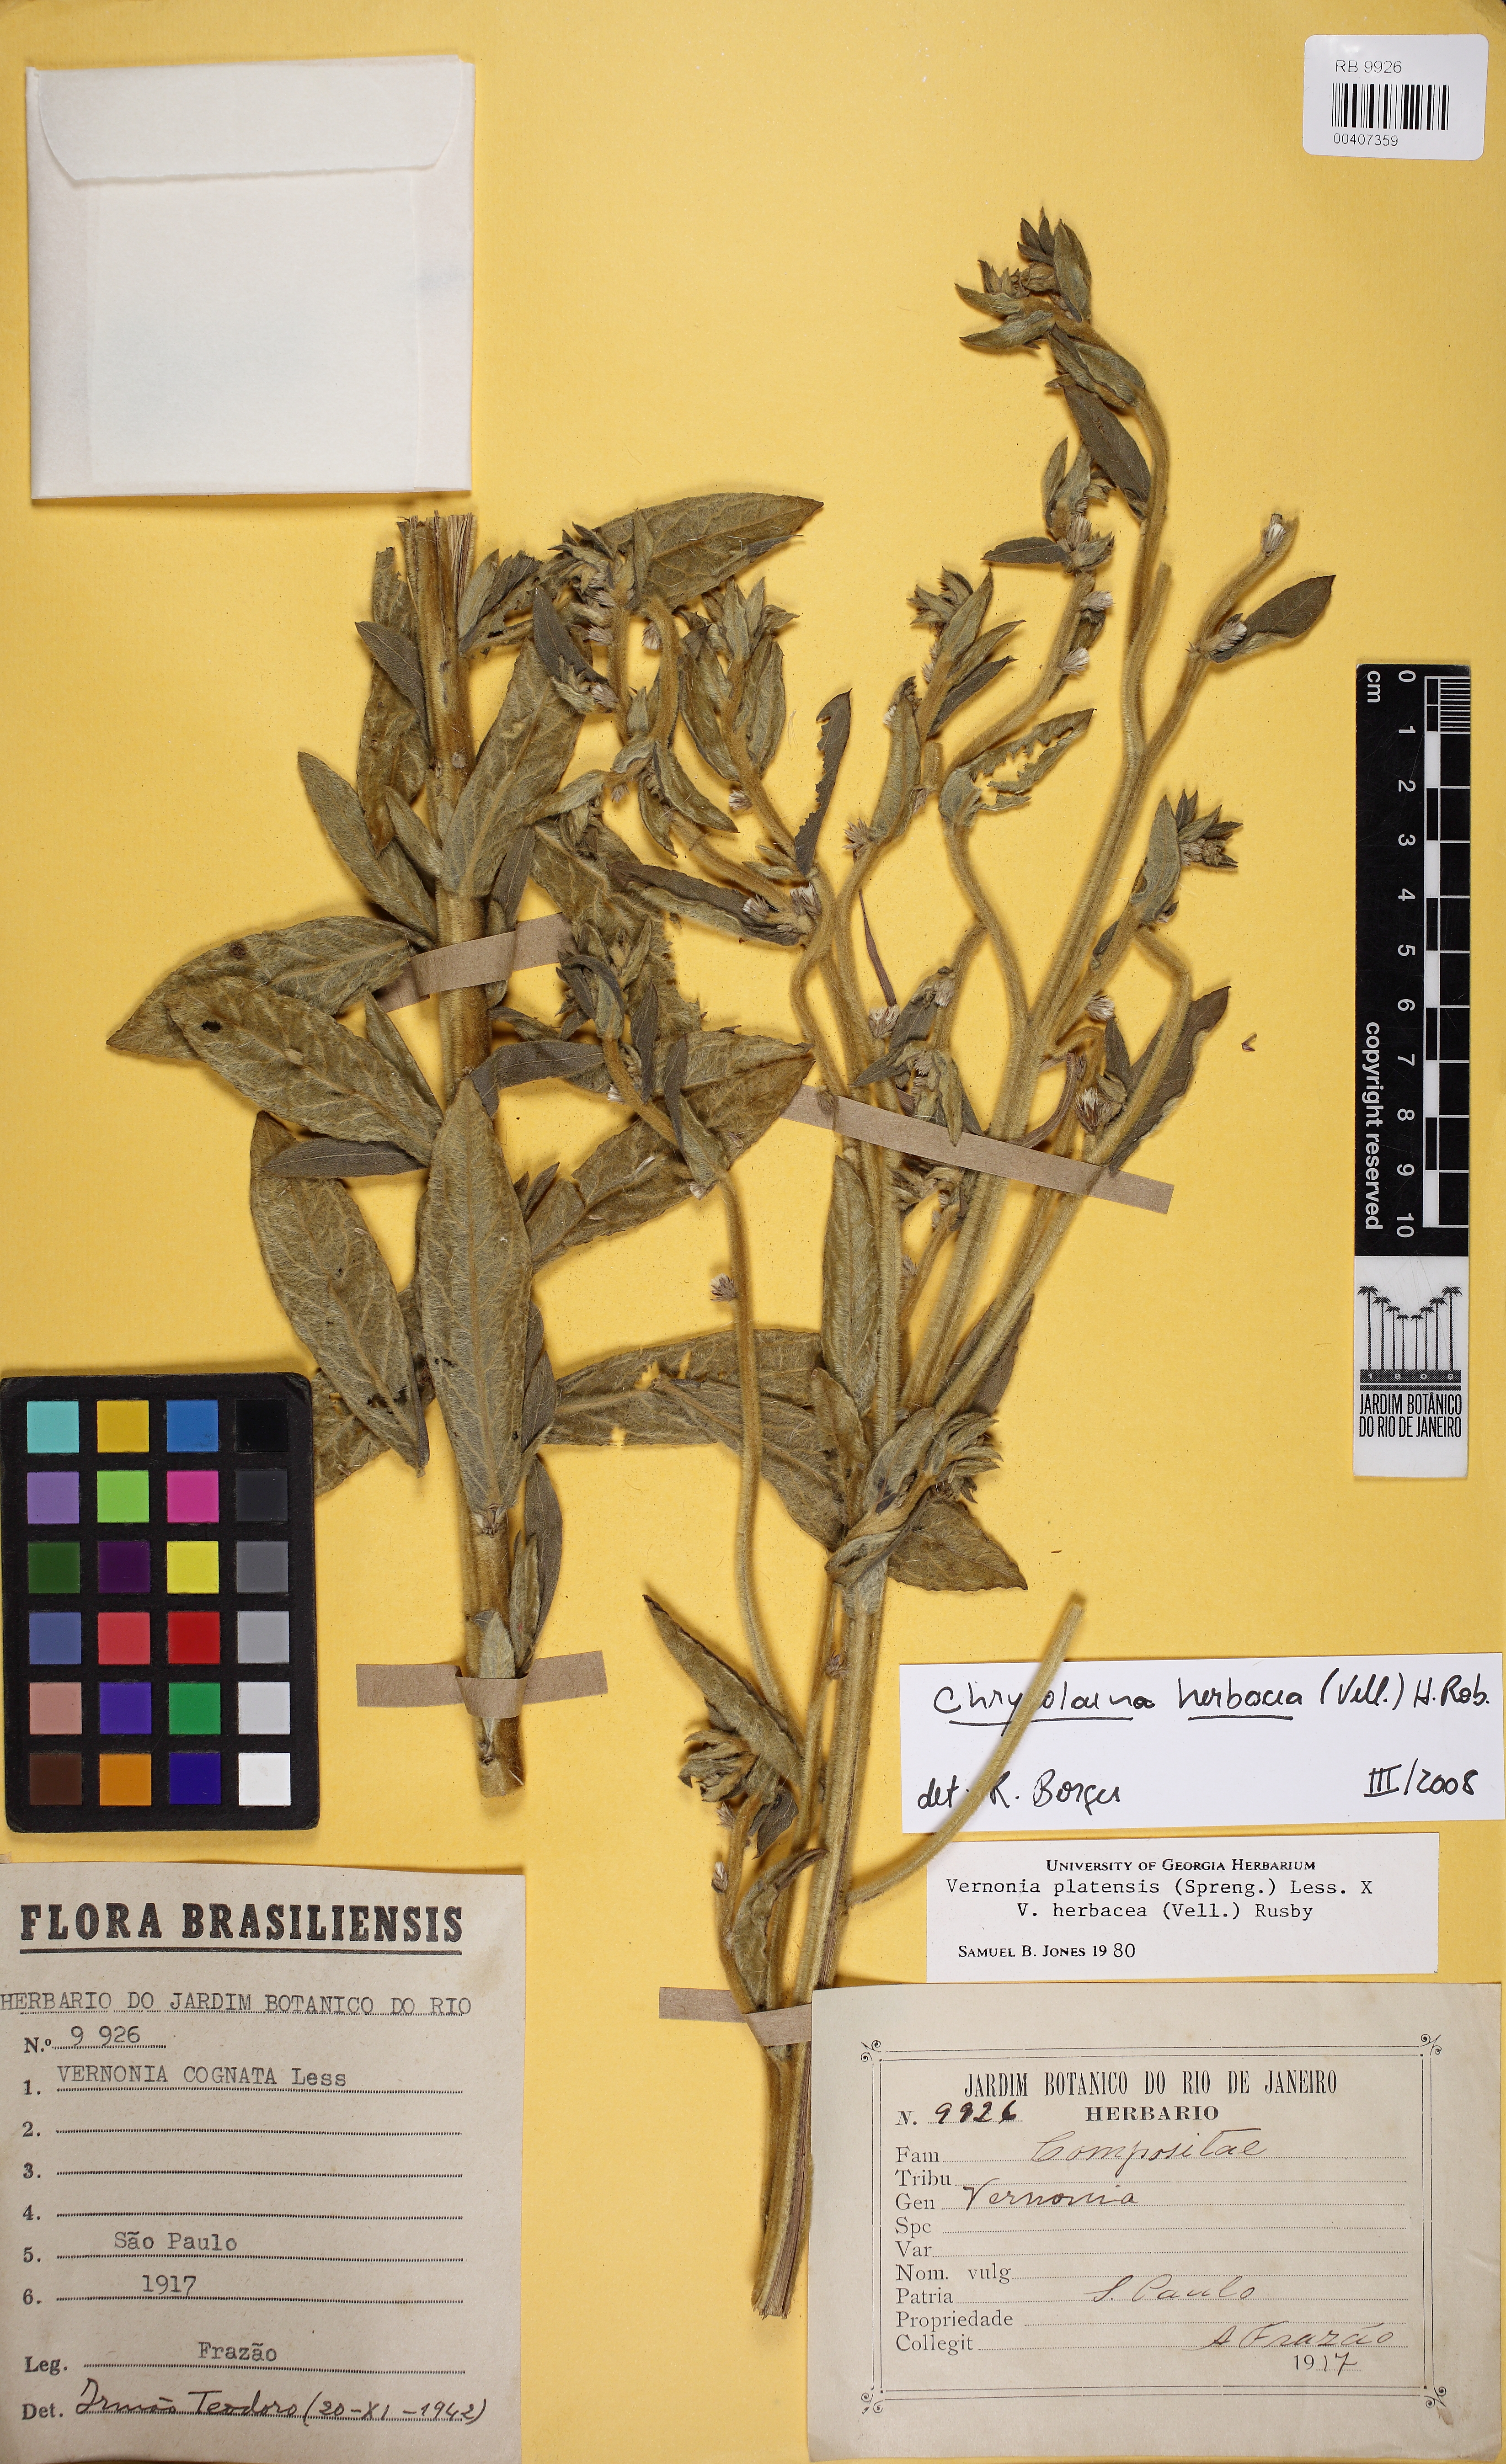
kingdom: Plantae
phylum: Tracheophyta
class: Magnoliopsida
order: Asterales
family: Asteraceae
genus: Chrysolaena
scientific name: Chrysolaena platensis
